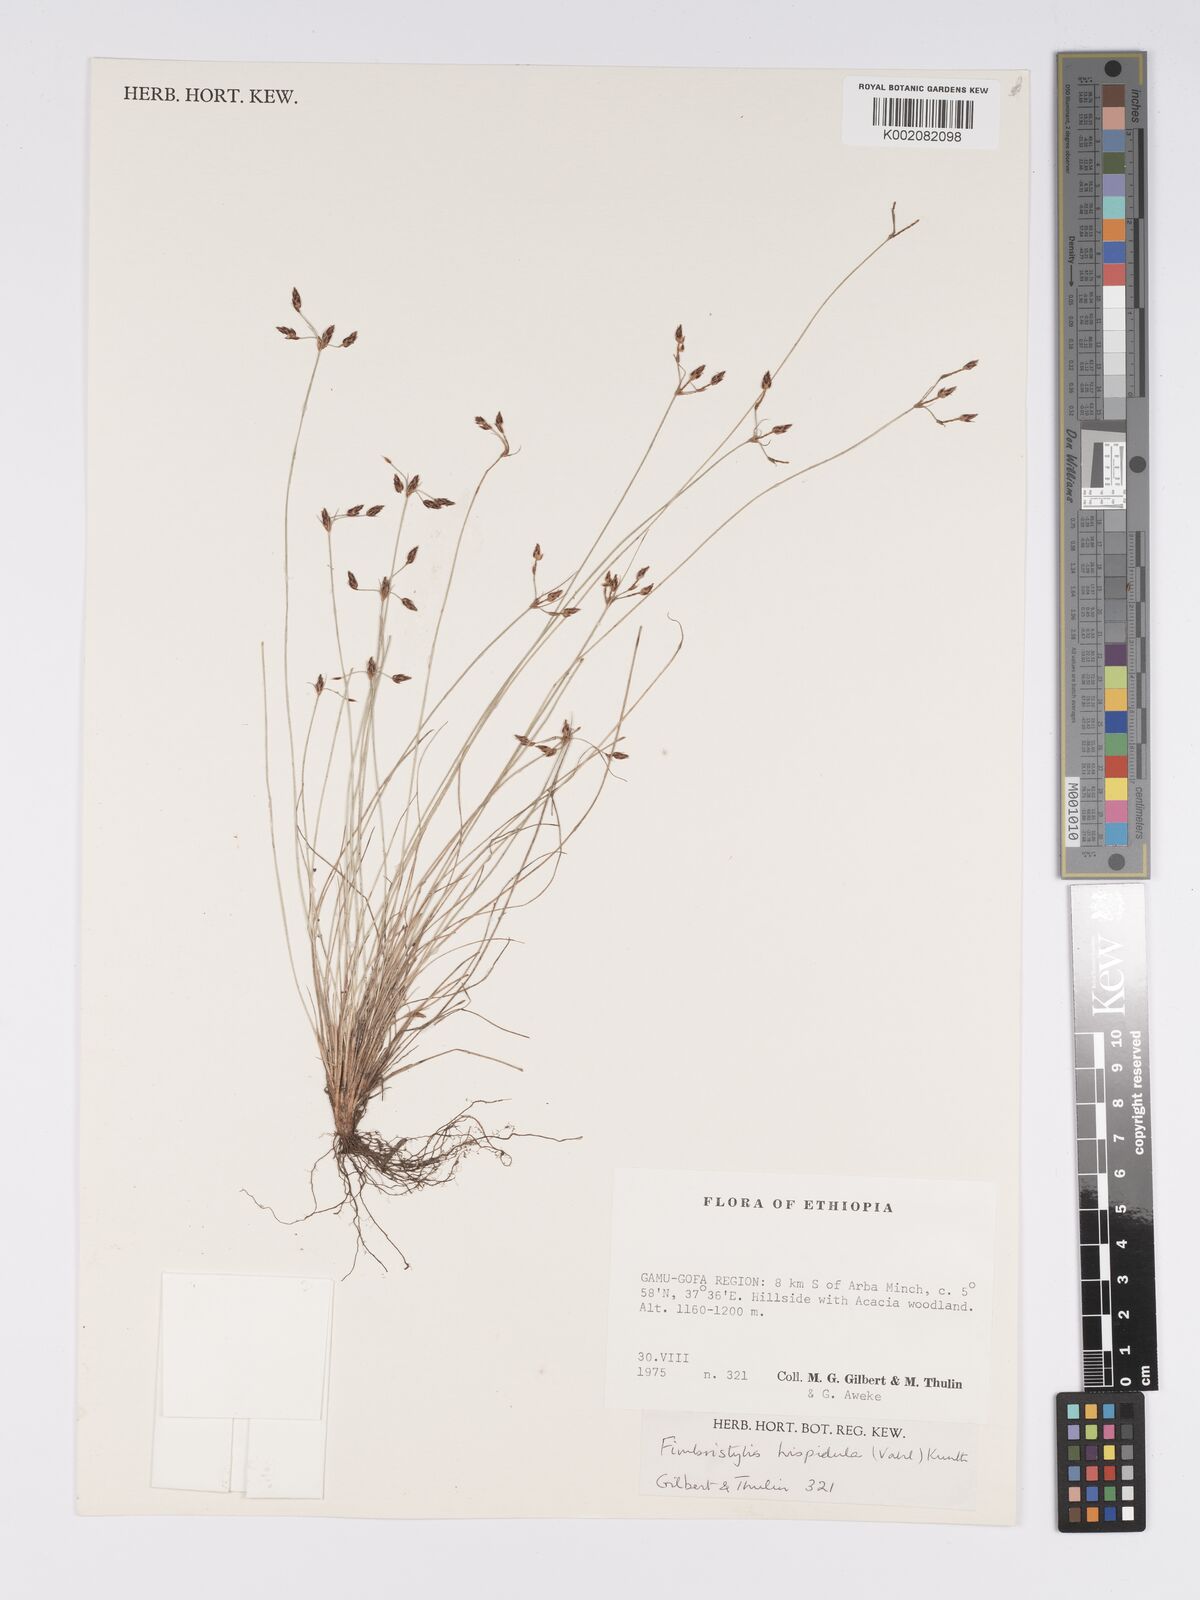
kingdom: Plantae
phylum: Tracheophyta
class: Liliopsida
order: Poales
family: Cyperaceae
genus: Bulbostylis
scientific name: Bulbostylis hispidula
